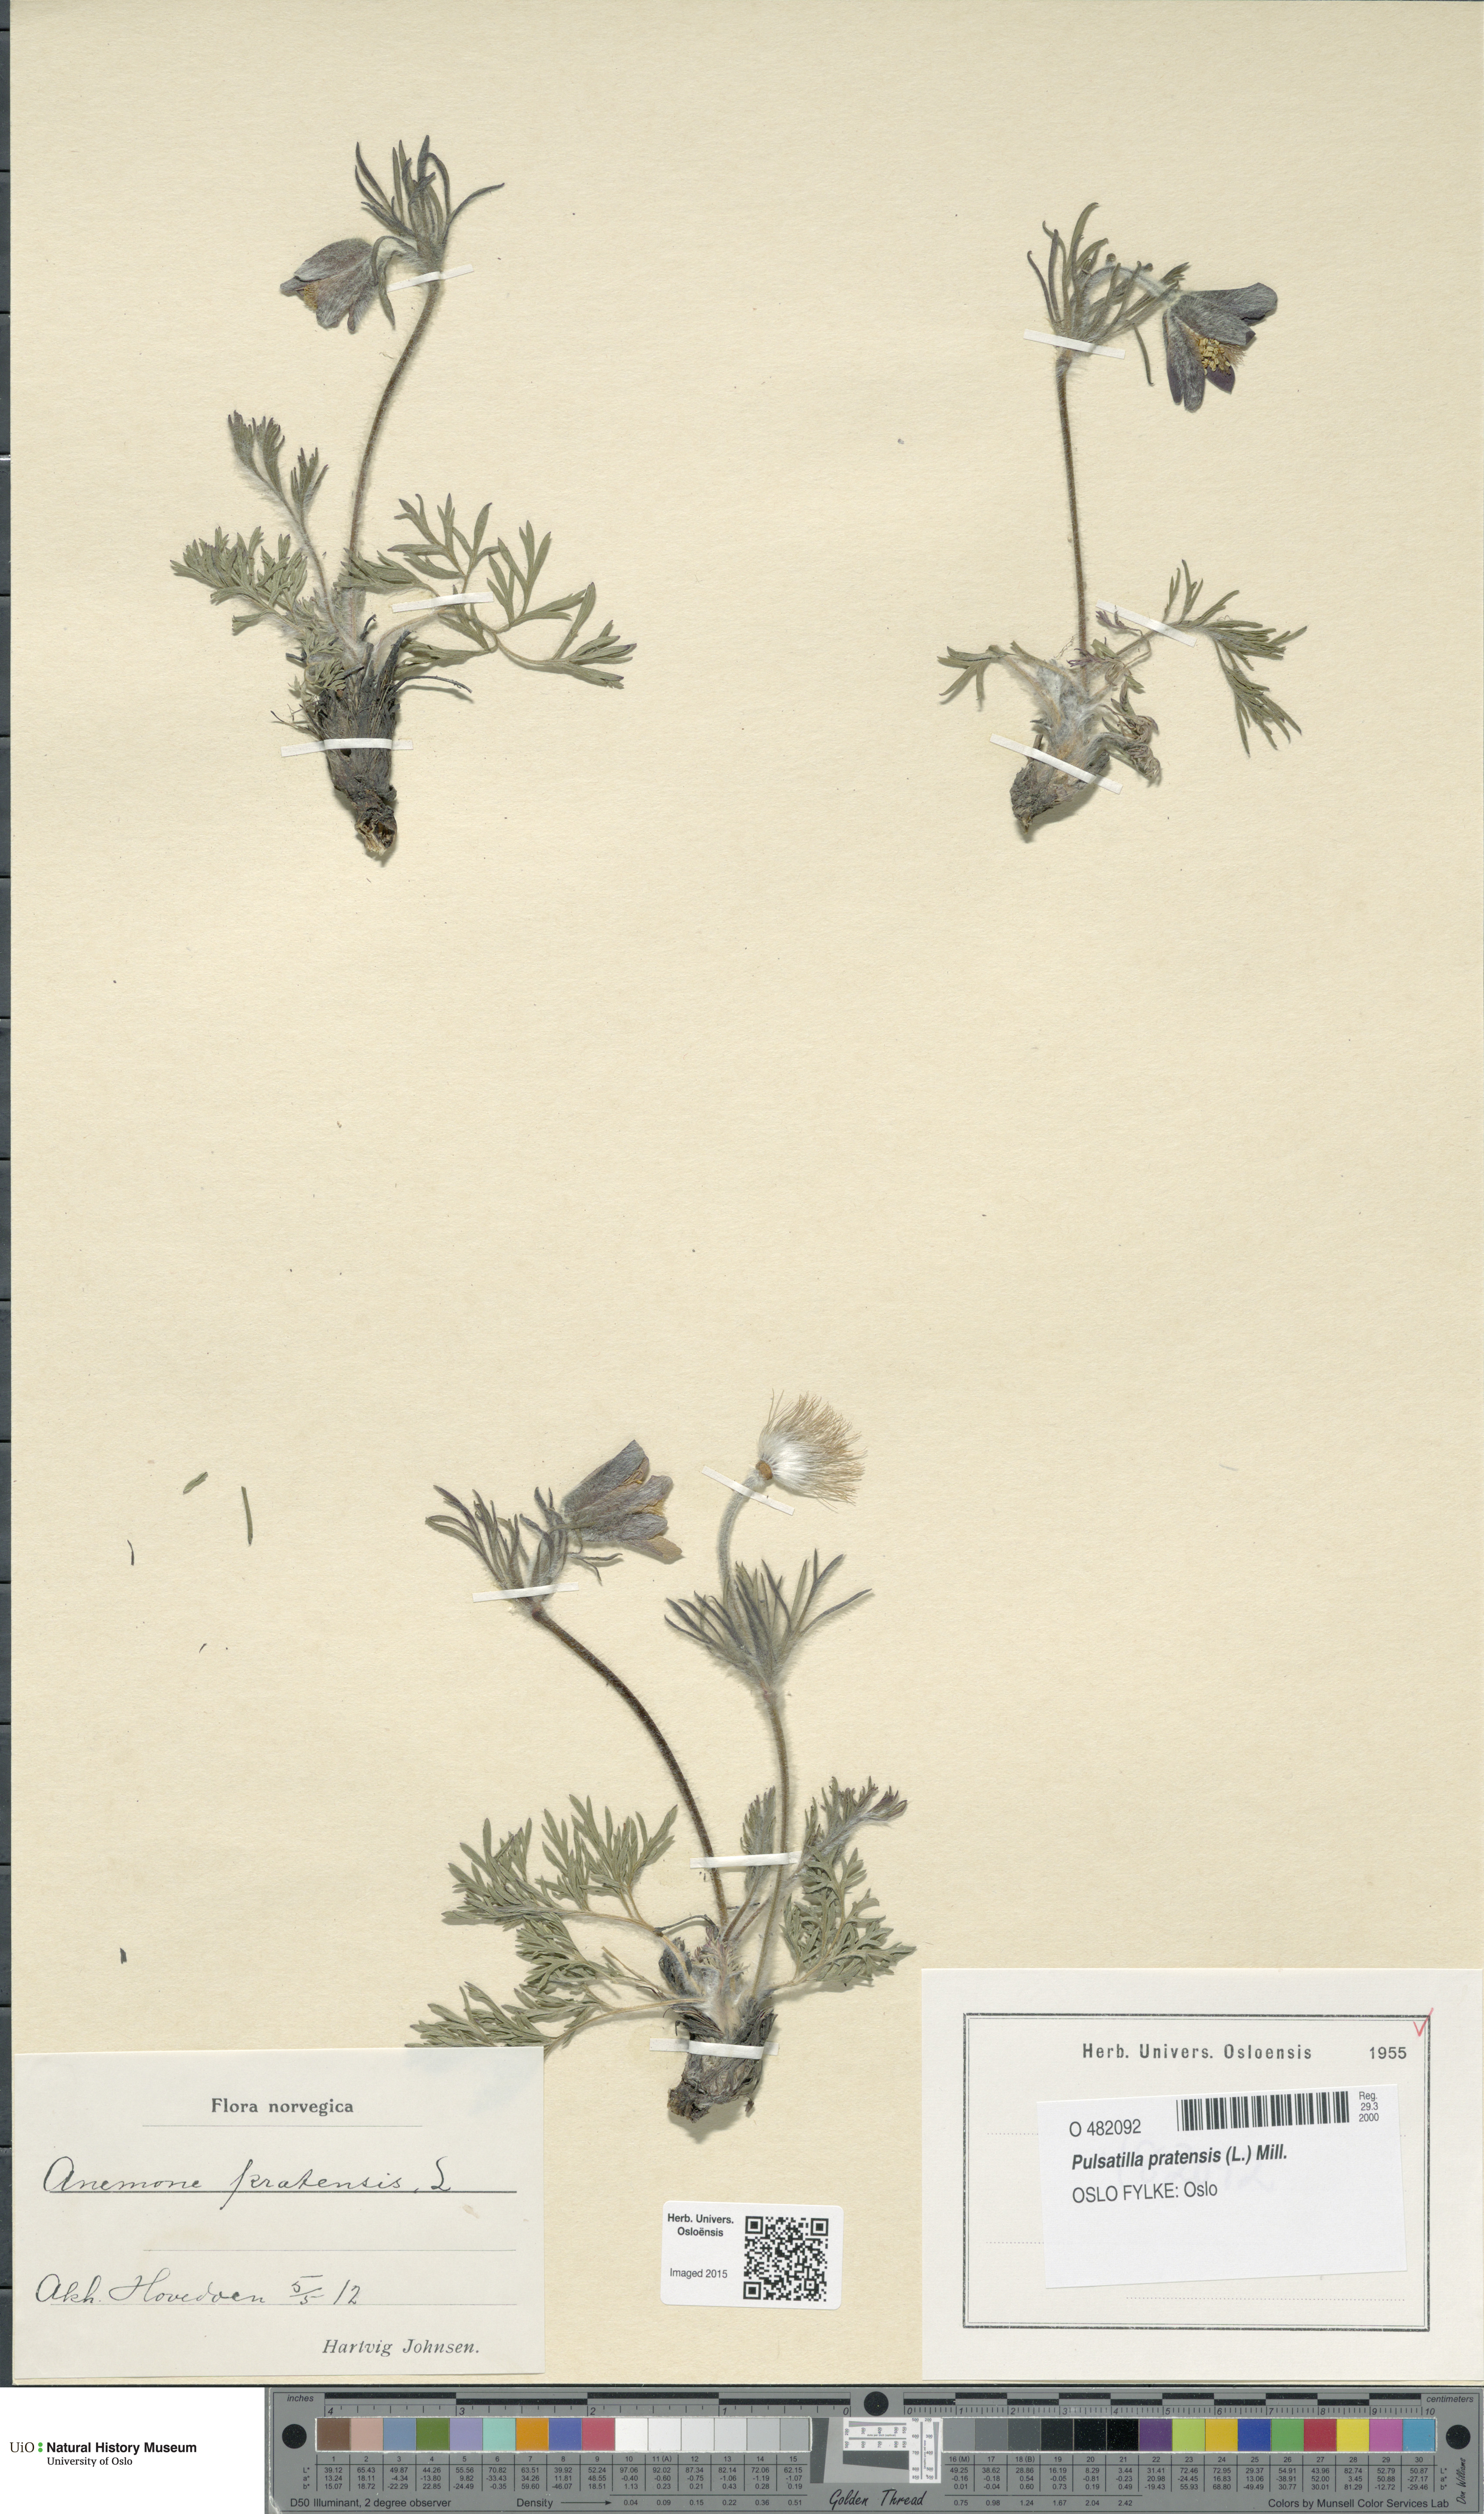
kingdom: Plantae
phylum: Tracheophyta
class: Magnoliopsida
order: Ranunculales
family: Ranunculaceae
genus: Pulsatilla
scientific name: Pulsatilla pratensis
